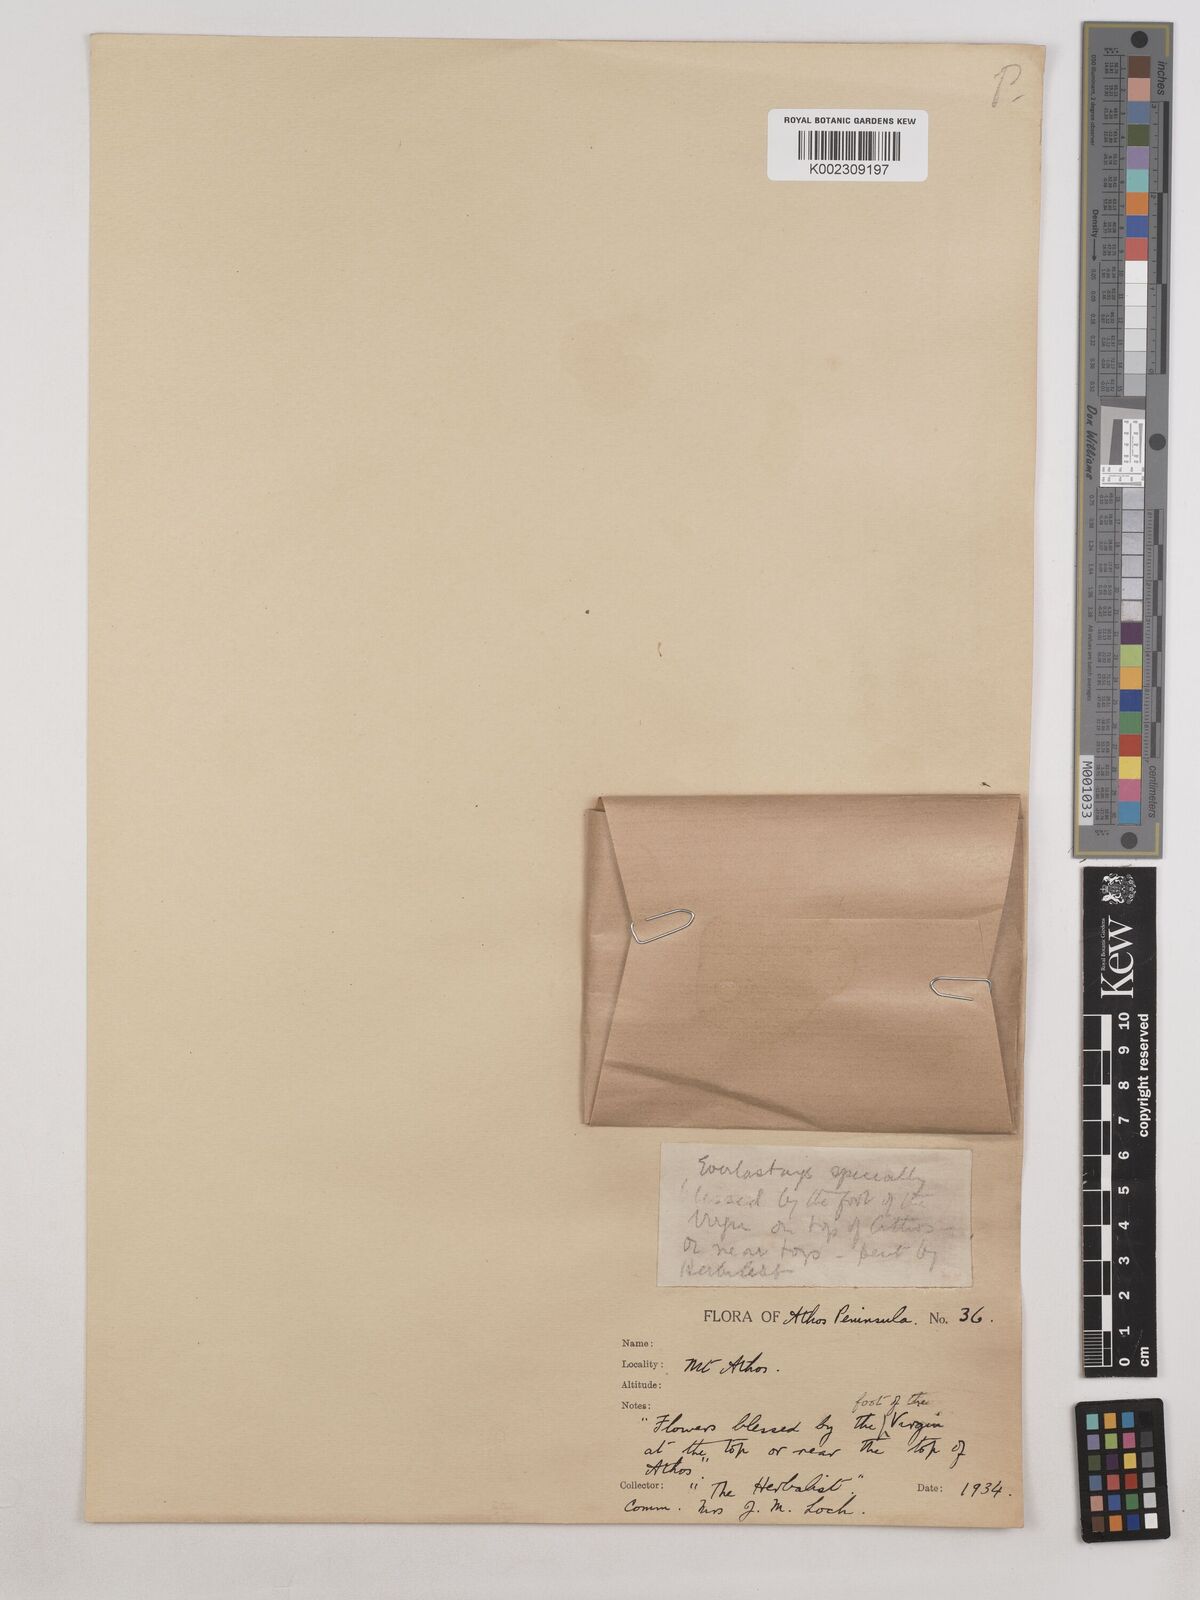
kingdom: Plantae
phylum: Tracheophyta
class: Magnoliopsida
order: Asterales
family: Asteraceae
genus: Helichrysum
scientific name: Helichrysum sibthorpii
